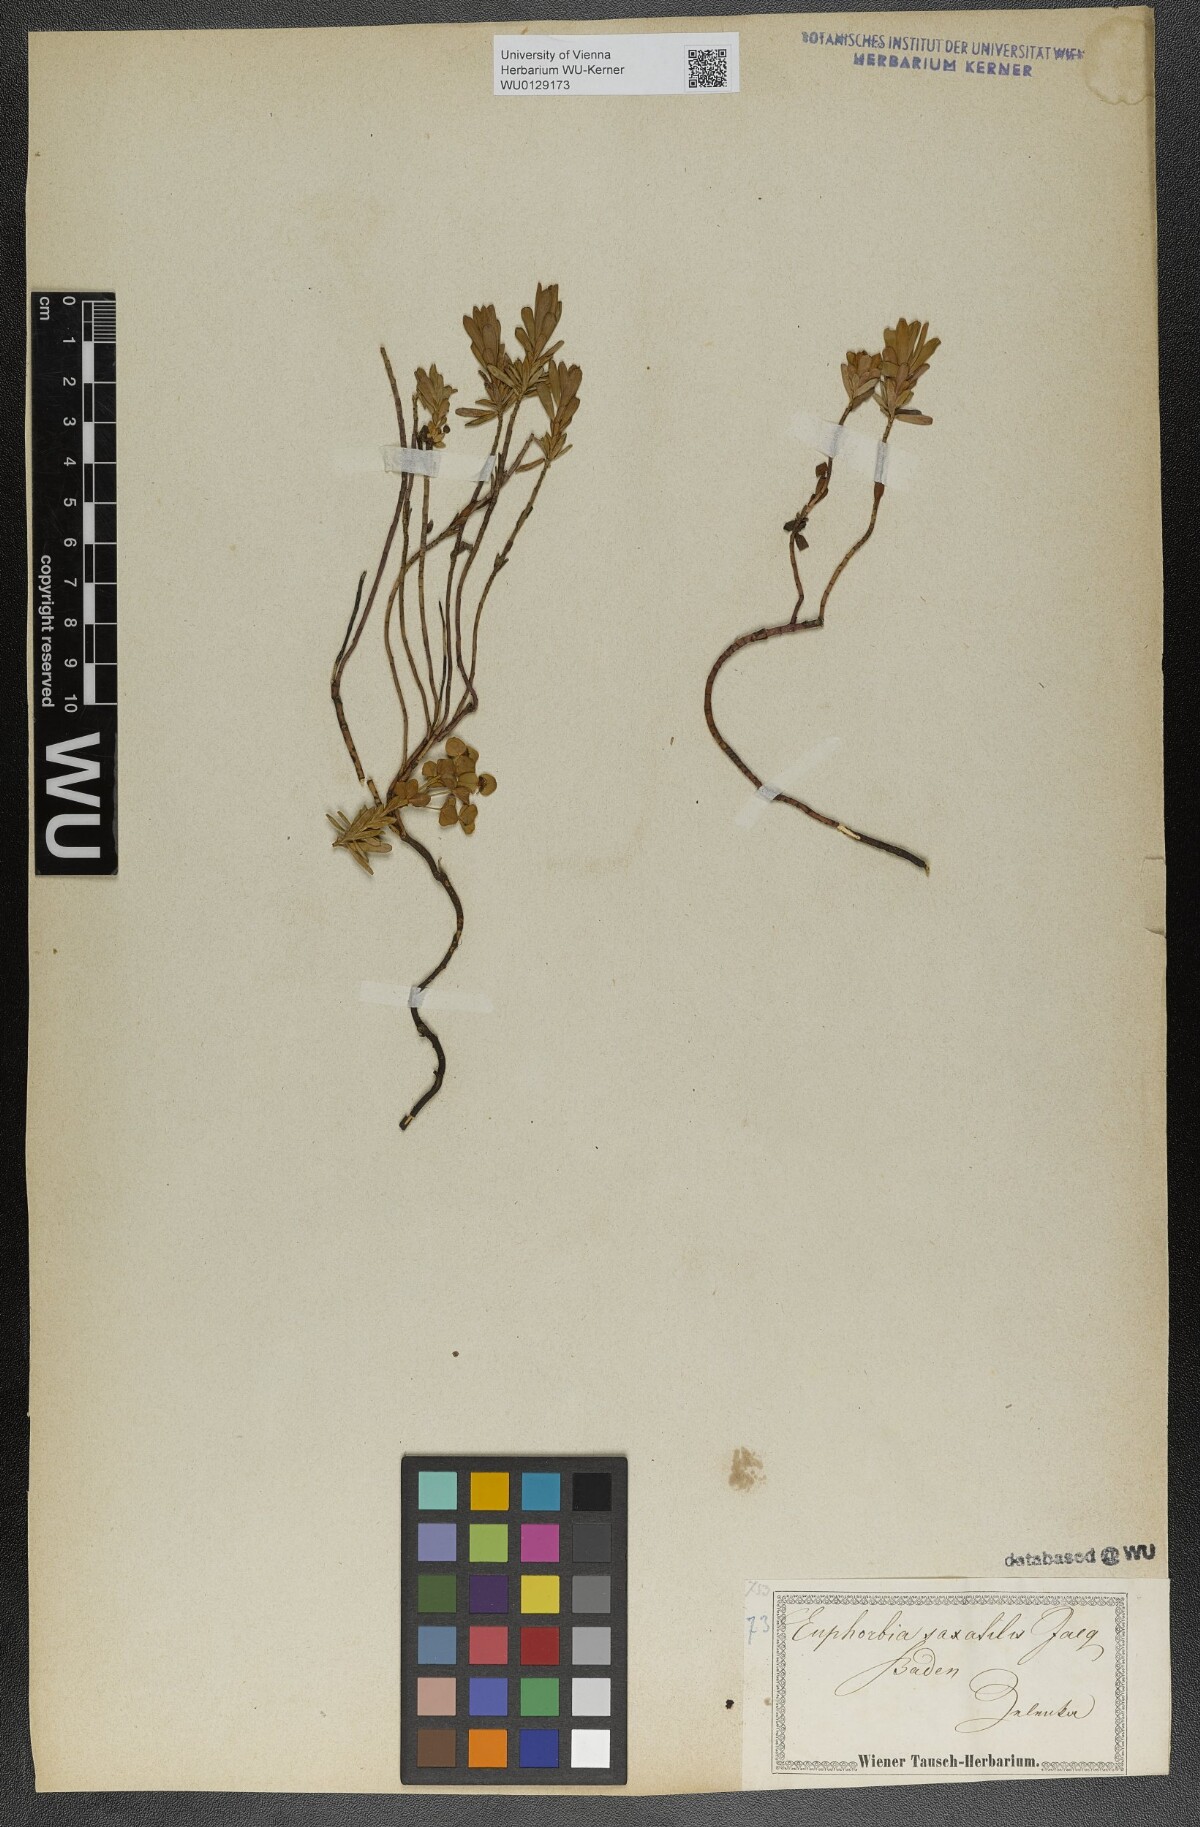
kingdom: Plantae
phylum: Tracheophyta
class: Magnoliopsida
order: Malpighiales
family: Euphorbiaceae
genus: Euphorbia
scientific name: Euphorbia saxatilis
